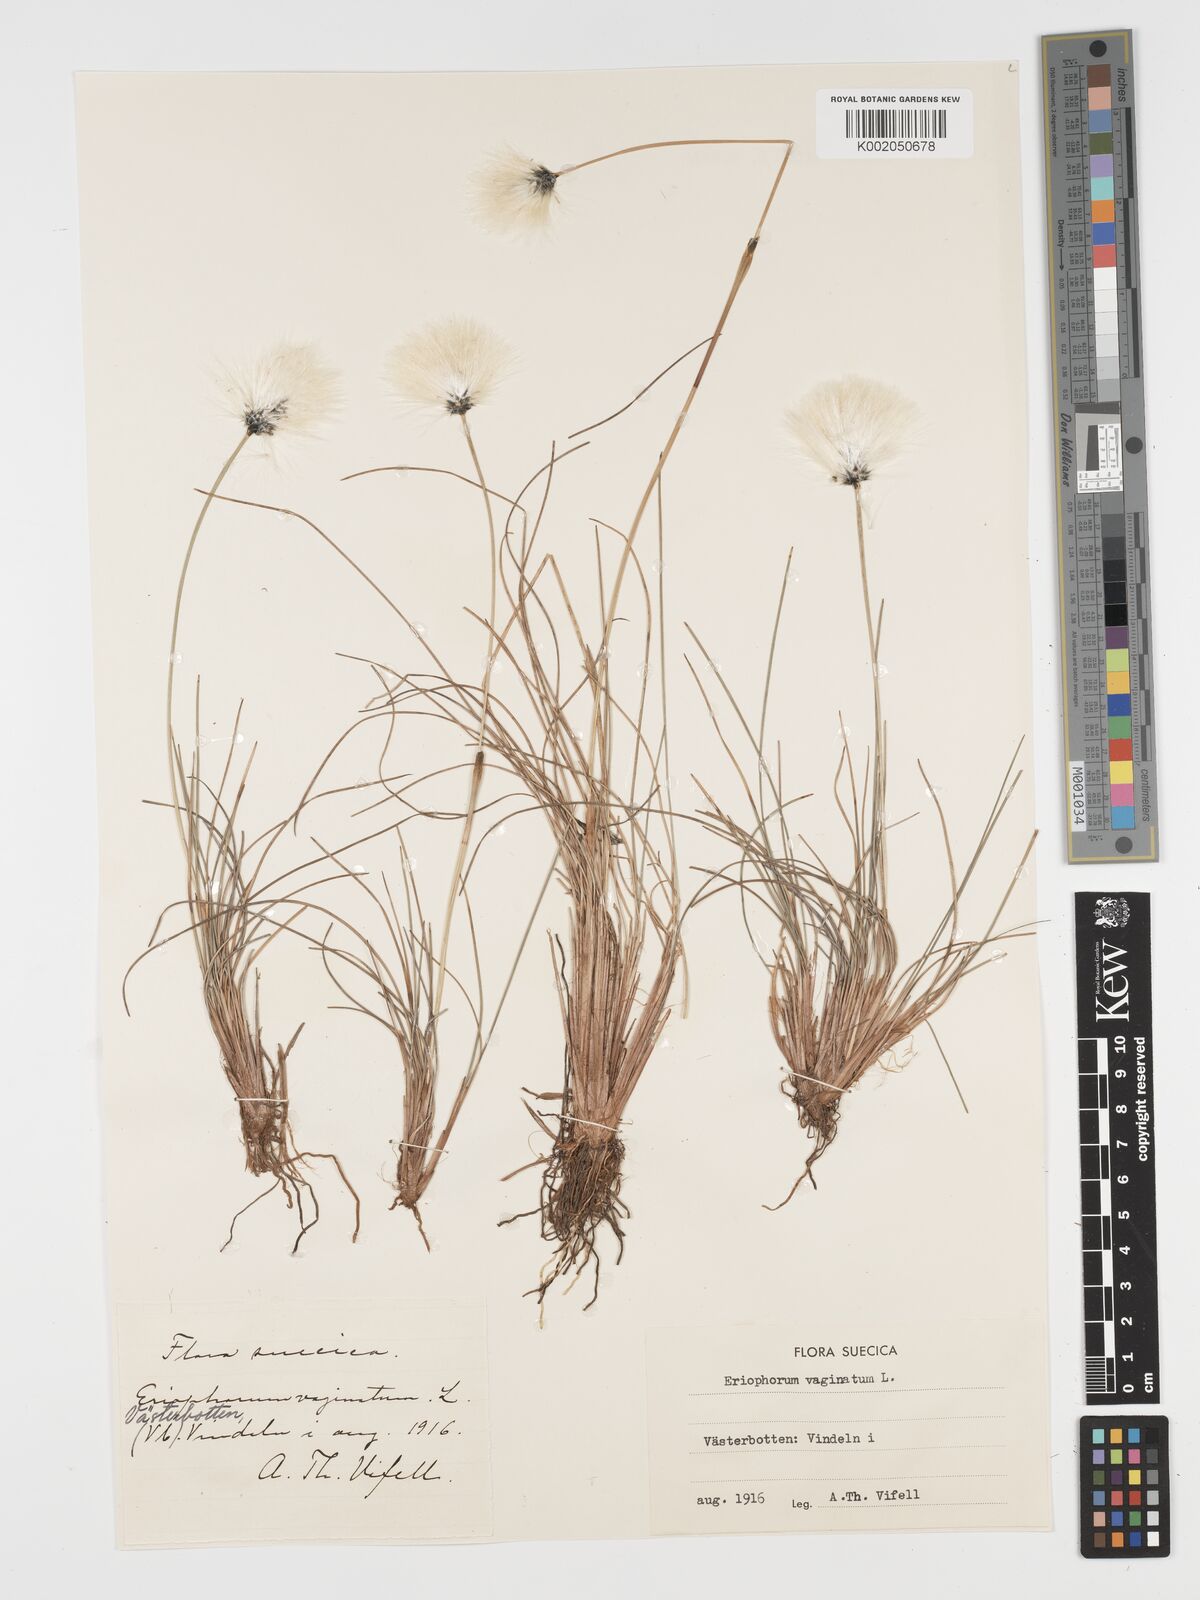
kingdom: Plantae
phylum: Tracheophyta
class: Liliopsida
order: Poales
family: Cyperaceae
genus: Eriophorum
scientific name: Eriophorum vaginatum
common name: Hare's-tail cottongrass
